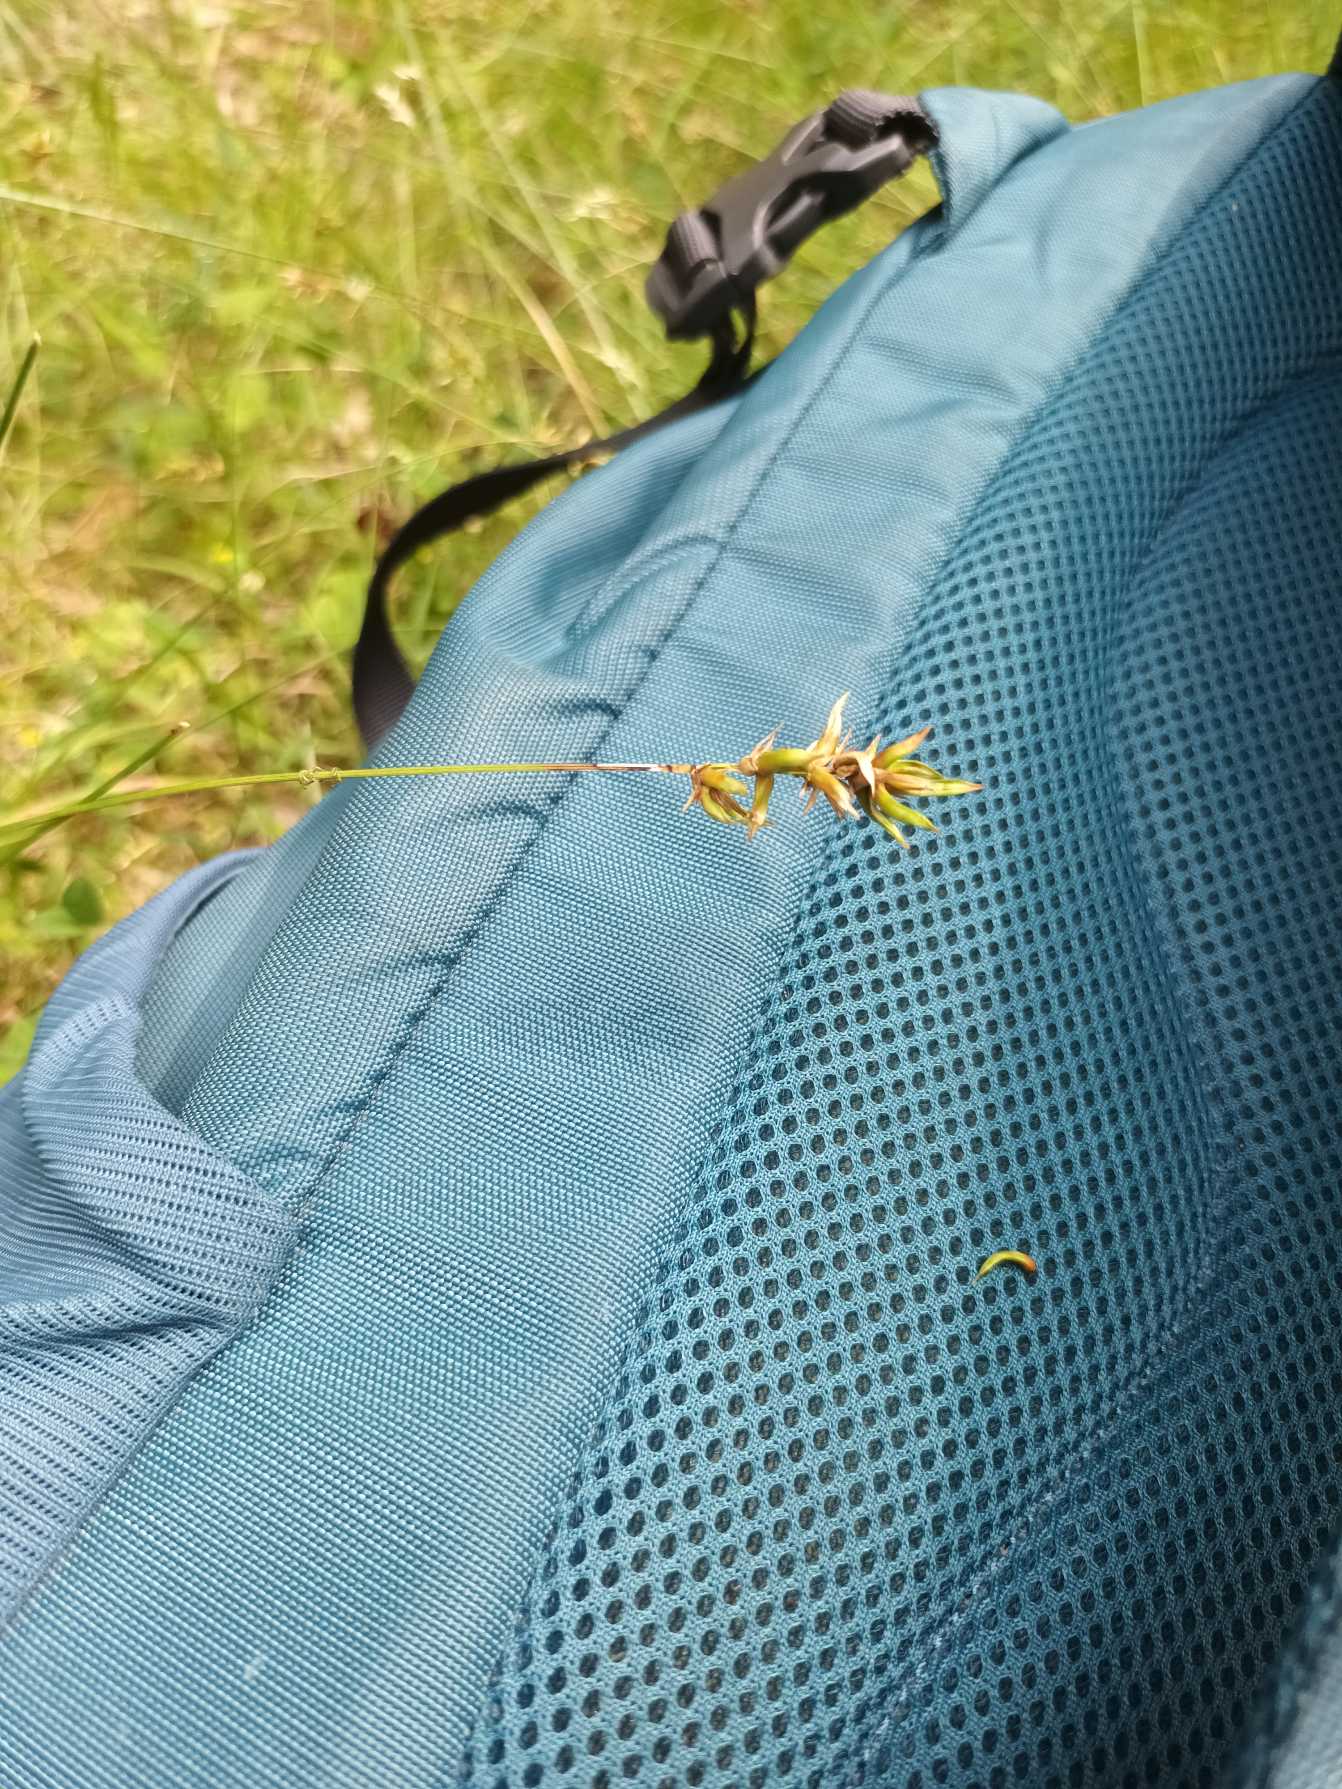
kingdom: Plantae
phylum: Tracheophyta
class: Liliopsida
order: Poales
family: Cyperaceae
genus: Carex
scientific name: Carex spicata
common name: Spidskapslet star
